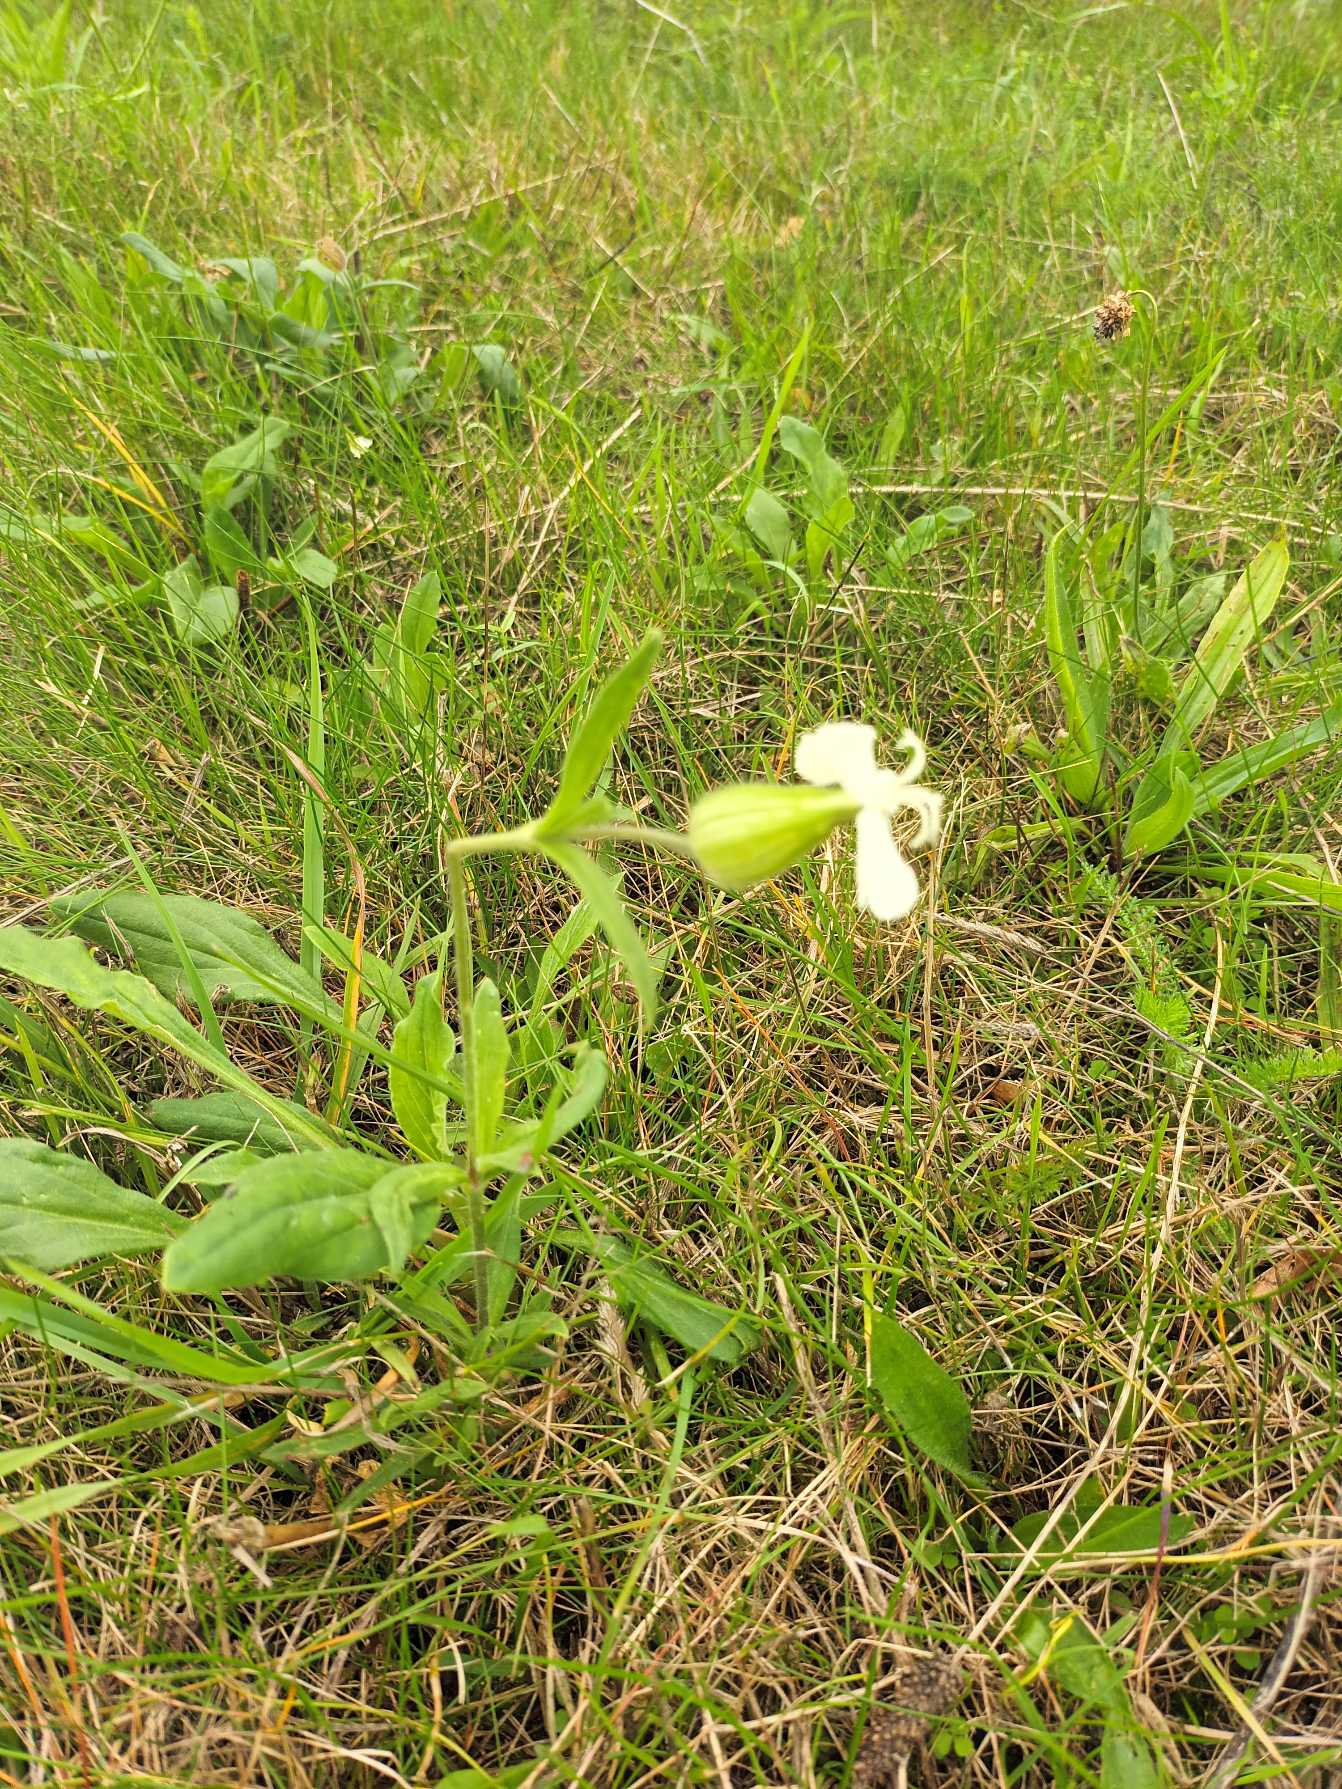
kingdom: Plantae
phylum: Tracheophyta
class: Magnoliopsida
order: Caryophyllales
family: Caryophyllaceae
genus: Silene
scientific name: Silene latifolia
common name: Aftenpragtstjerne
